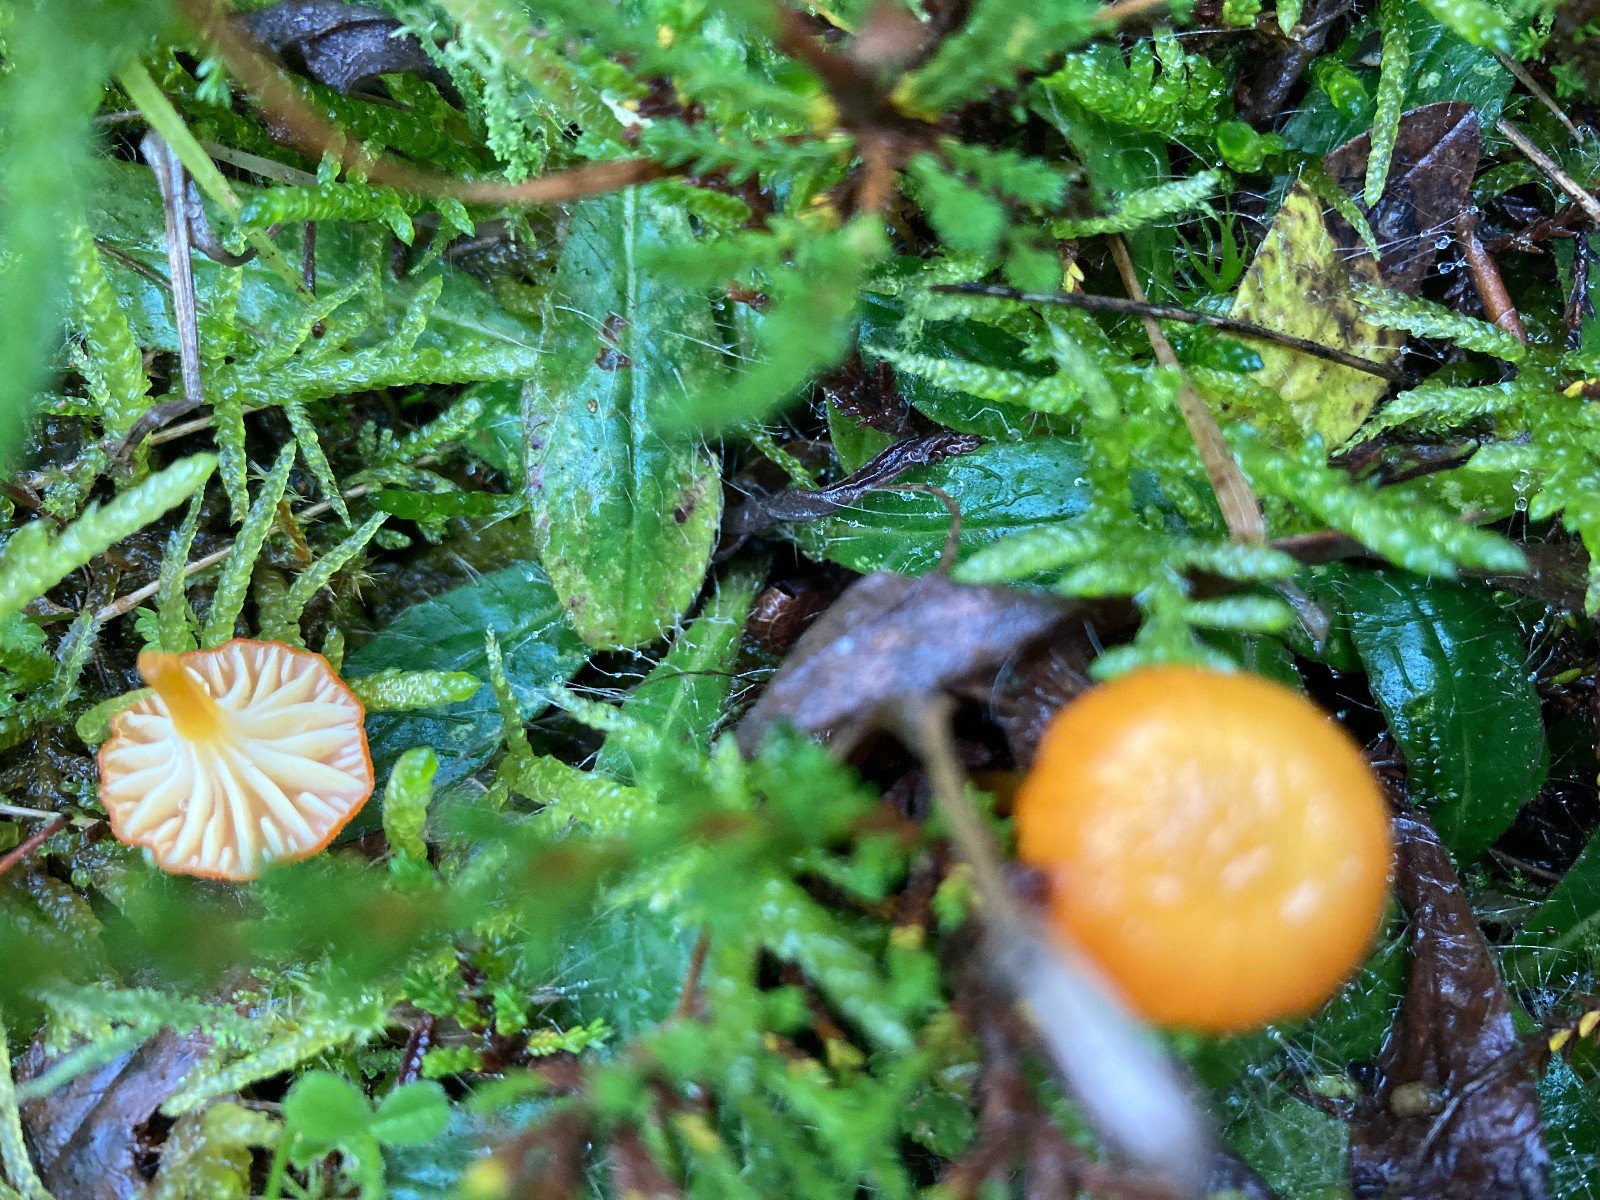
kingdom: Fungi
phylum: Basidiomycota
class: Agaricomycetes
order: Agaricales
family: Hygrophoraceae
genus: Hygrocybe
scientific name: Hygrocybe cantharellus
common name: kantarel-vokshat
